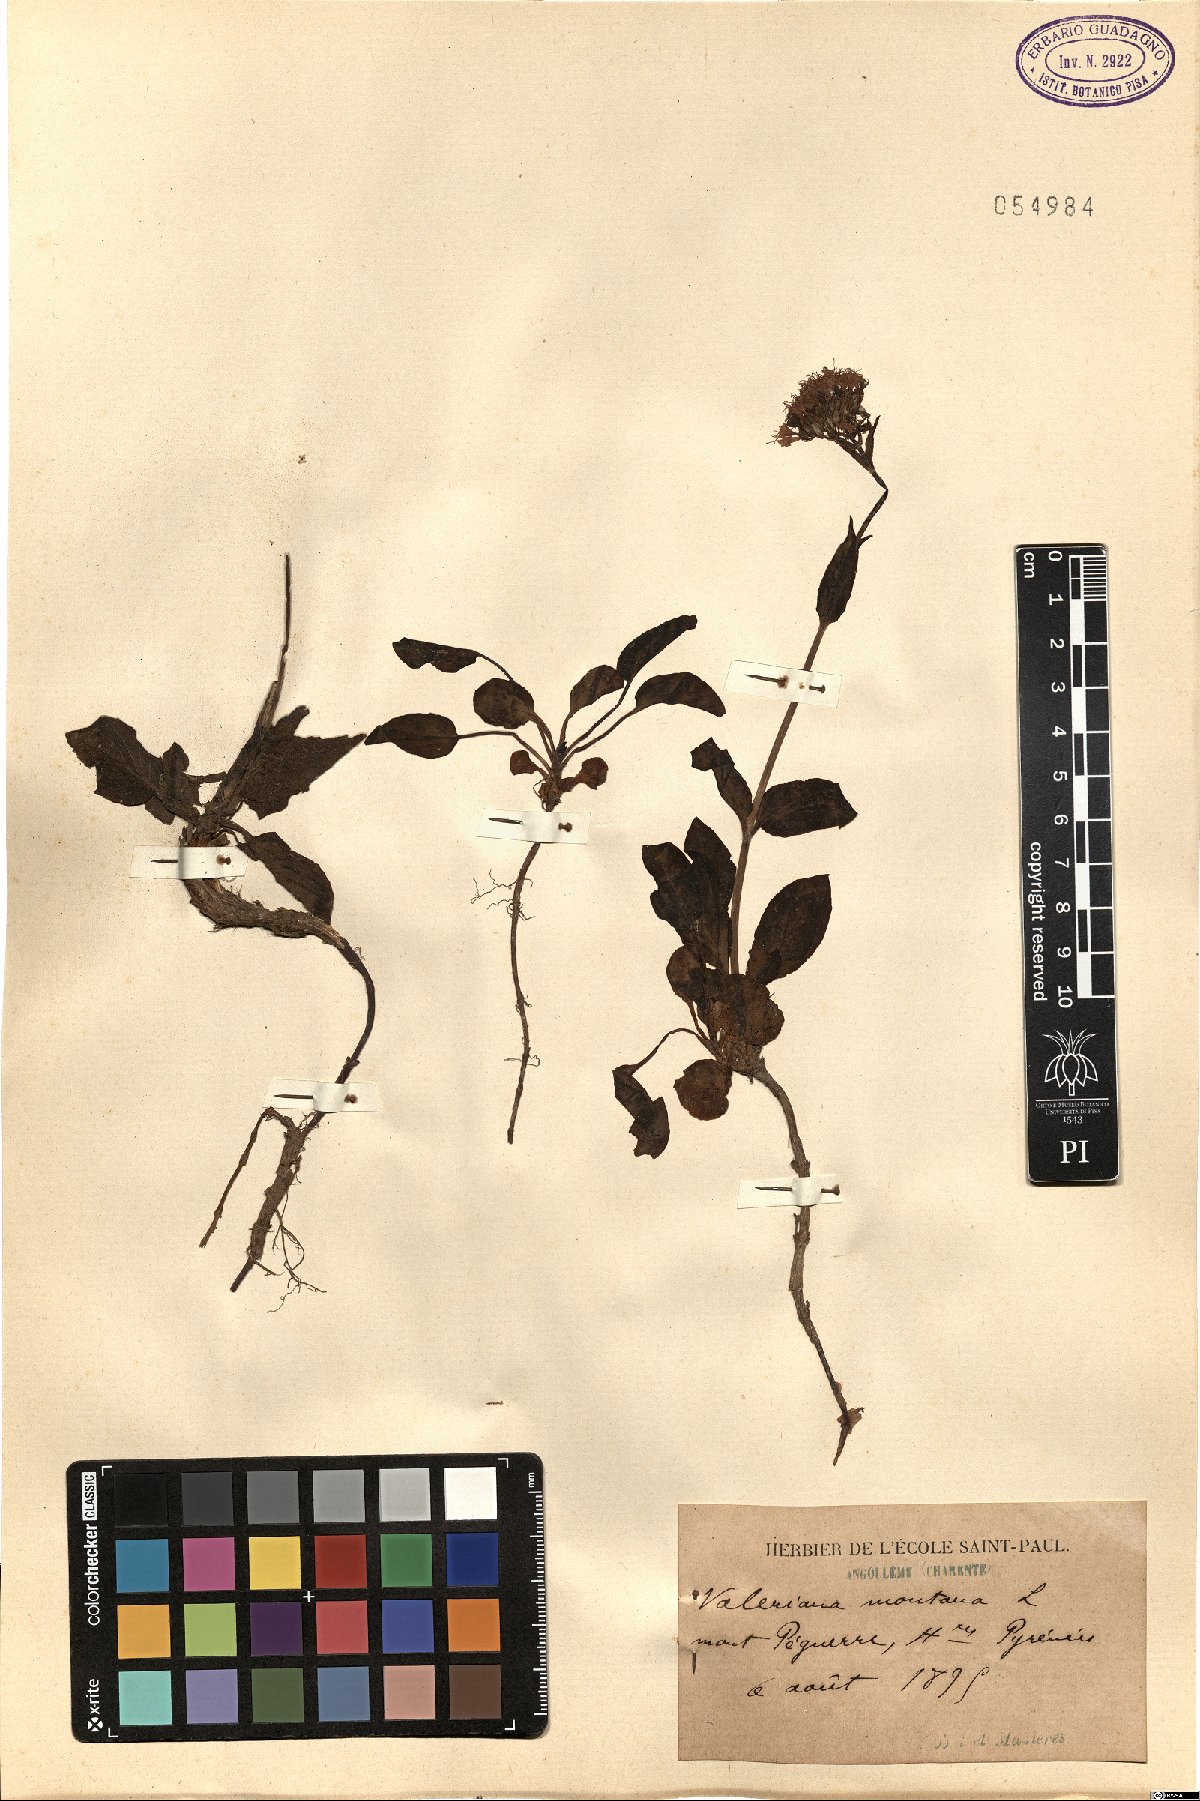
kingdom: Plantae
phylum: Tracheophyta
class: Magnoliopsida
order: Dipsacales
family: Caprifoliaceae
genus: Valeriana
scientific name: Valeriana montana
